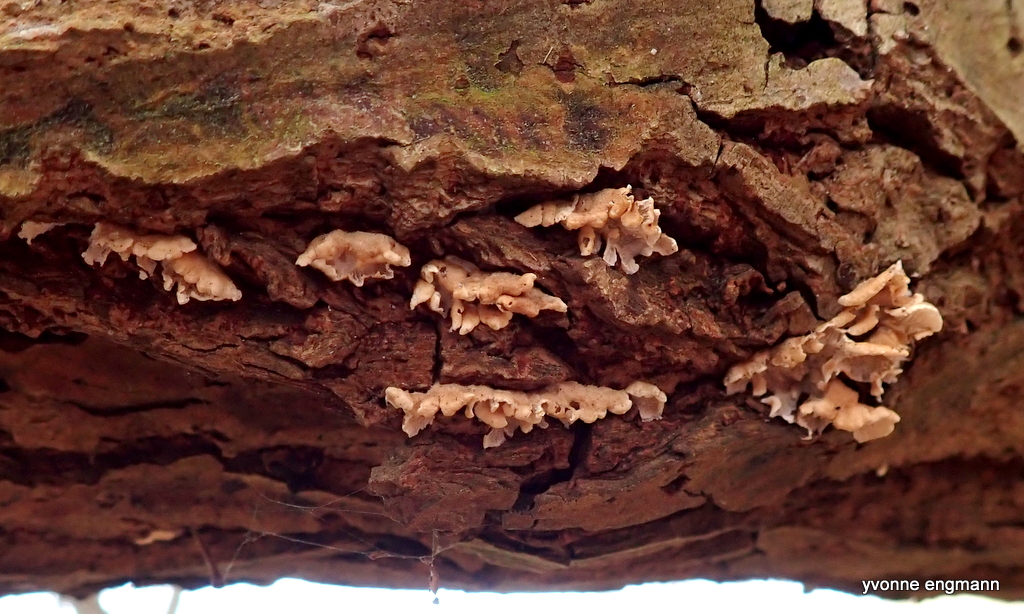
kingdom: Fungi
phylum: Basidiomycota
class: Agaricomycetes
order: Amylocorticiales
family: Amylocorticiaceae
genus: Plicaturopsis
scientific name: Plicaturopsis crispa
